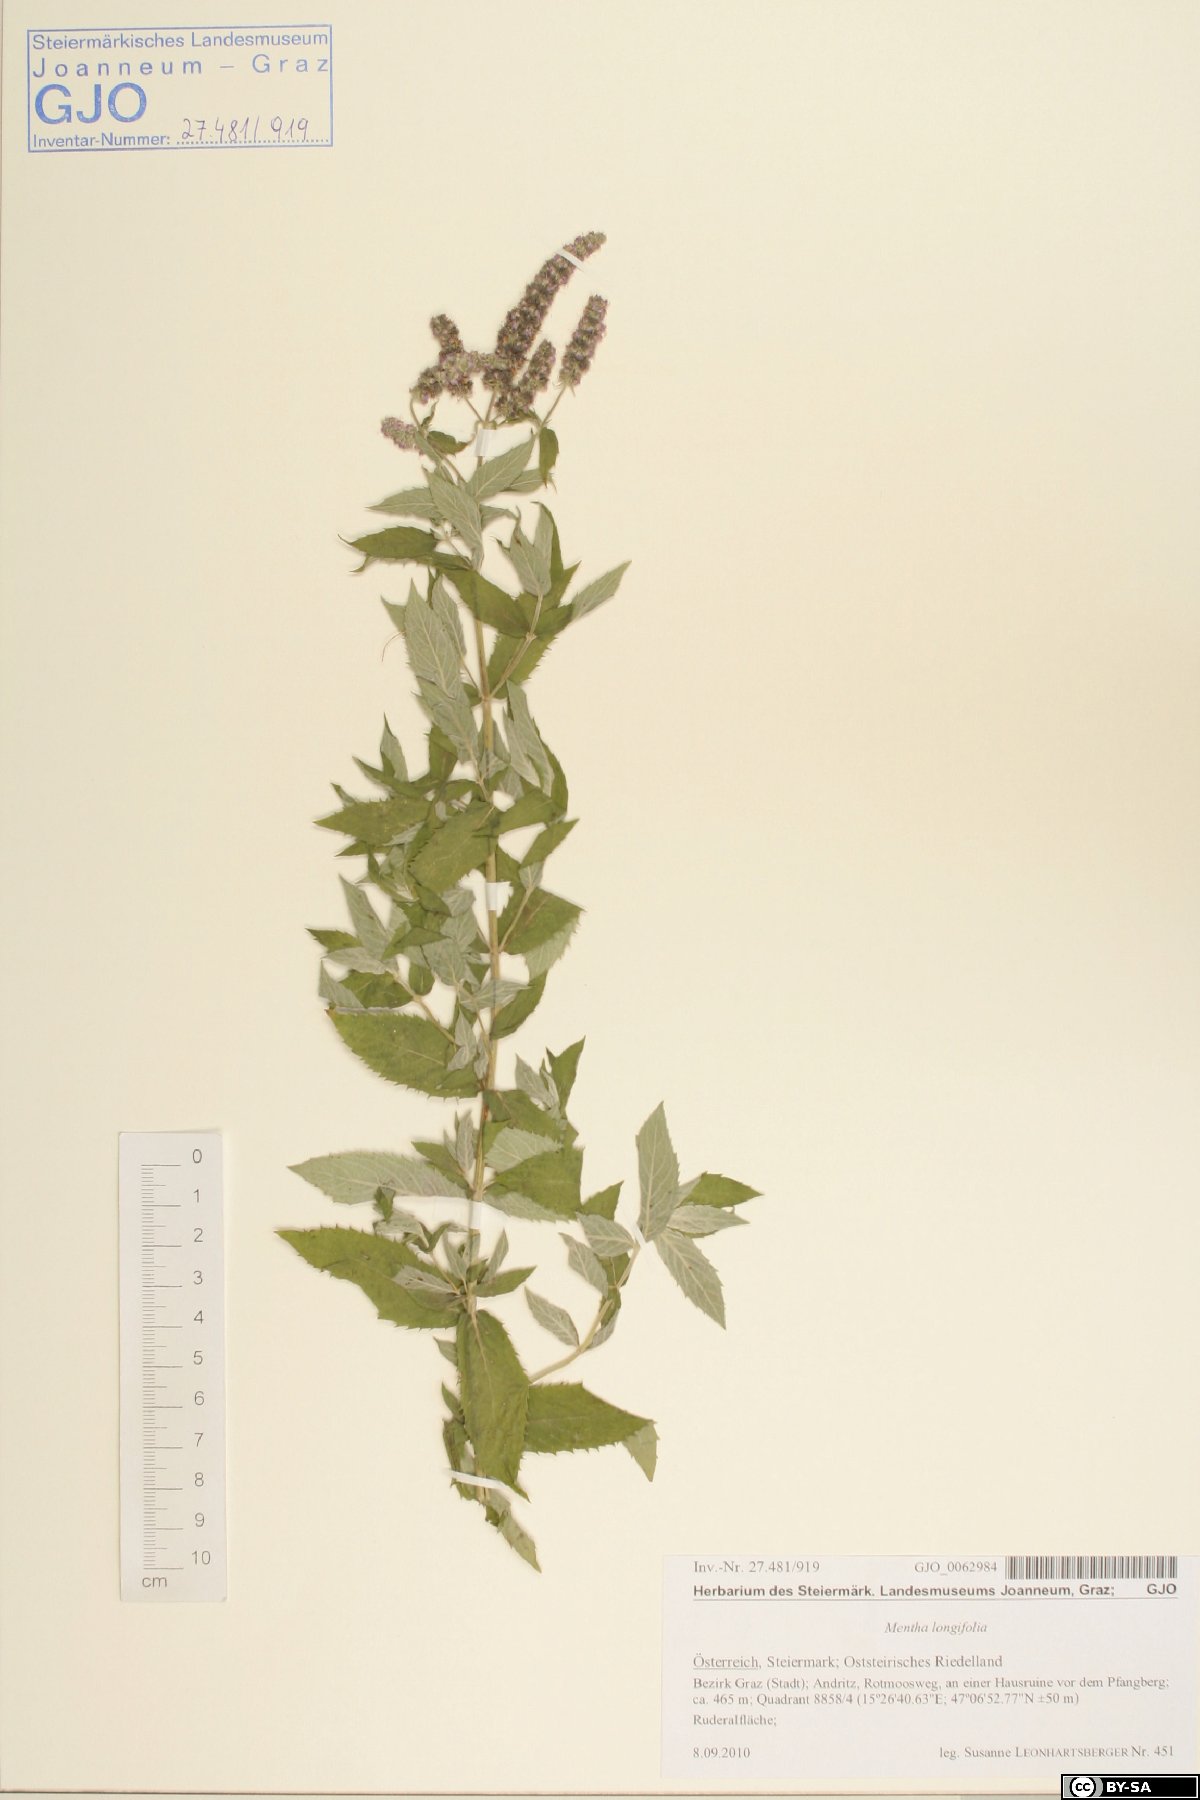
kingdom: Plantae
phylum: Tracheophyta
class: Magnoliopsida
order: Lamiales
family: Lamiaceae
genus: Mentha
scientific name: Mentha longifolia
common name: Horse mint
